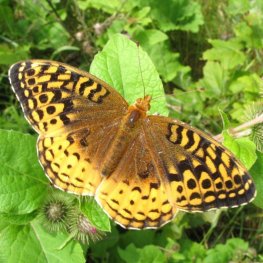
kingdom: Animalia
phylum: Arthropoda
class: Insecta
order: Lepidoptera
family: Nymphalidae
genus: Speyeria
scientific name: Speyeria cybele
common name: Great Spangled Fritillary
